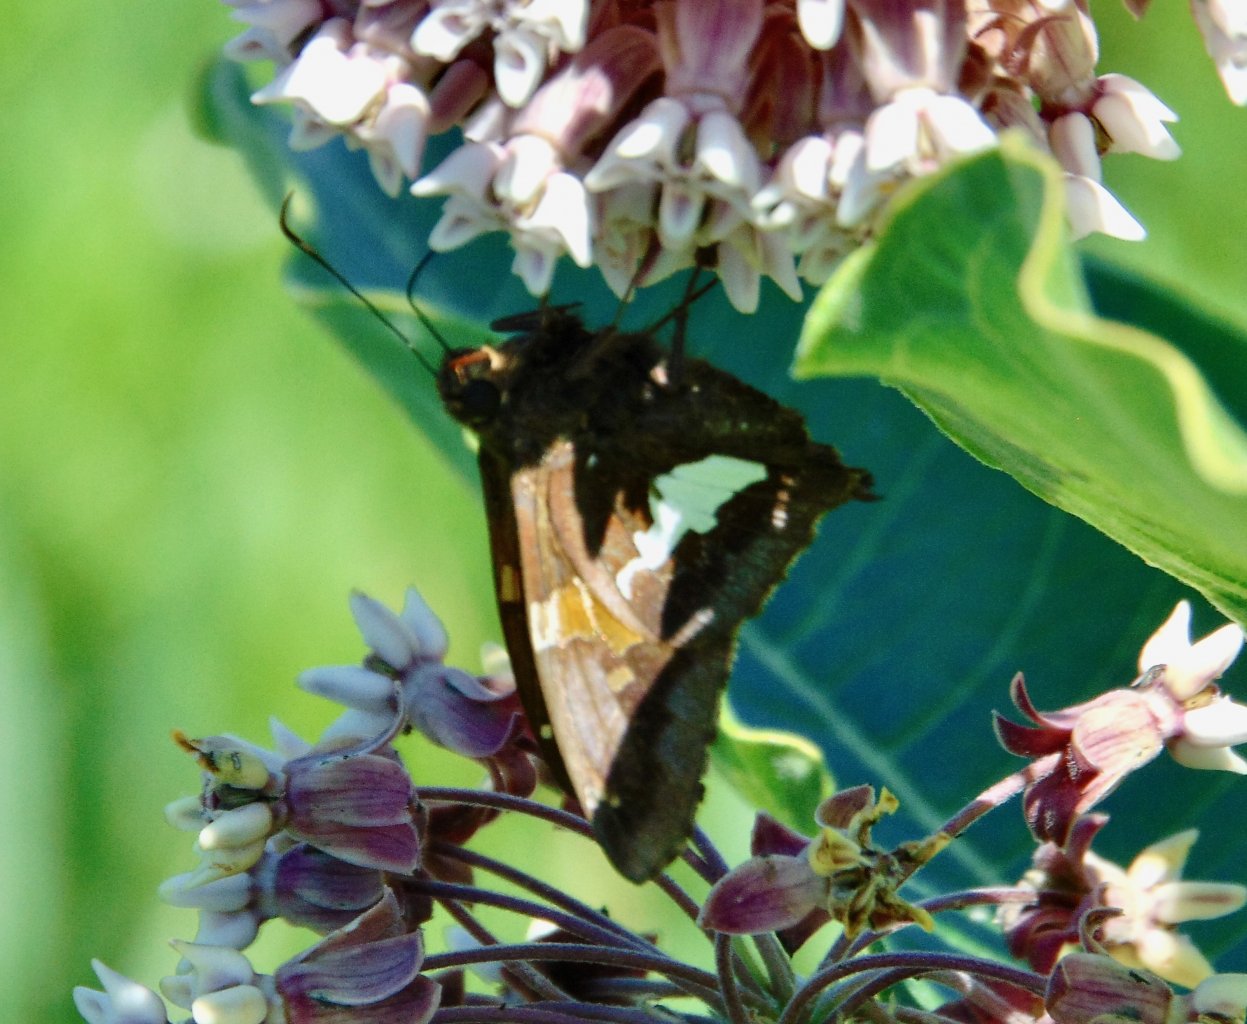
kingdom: Animalia
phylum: Arthropoda
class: Insecta
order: Lepidoptera
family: Hesperiidae
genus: Epargyreus
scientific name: Epargyreus clarus
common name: Silver-spotted Skipper
